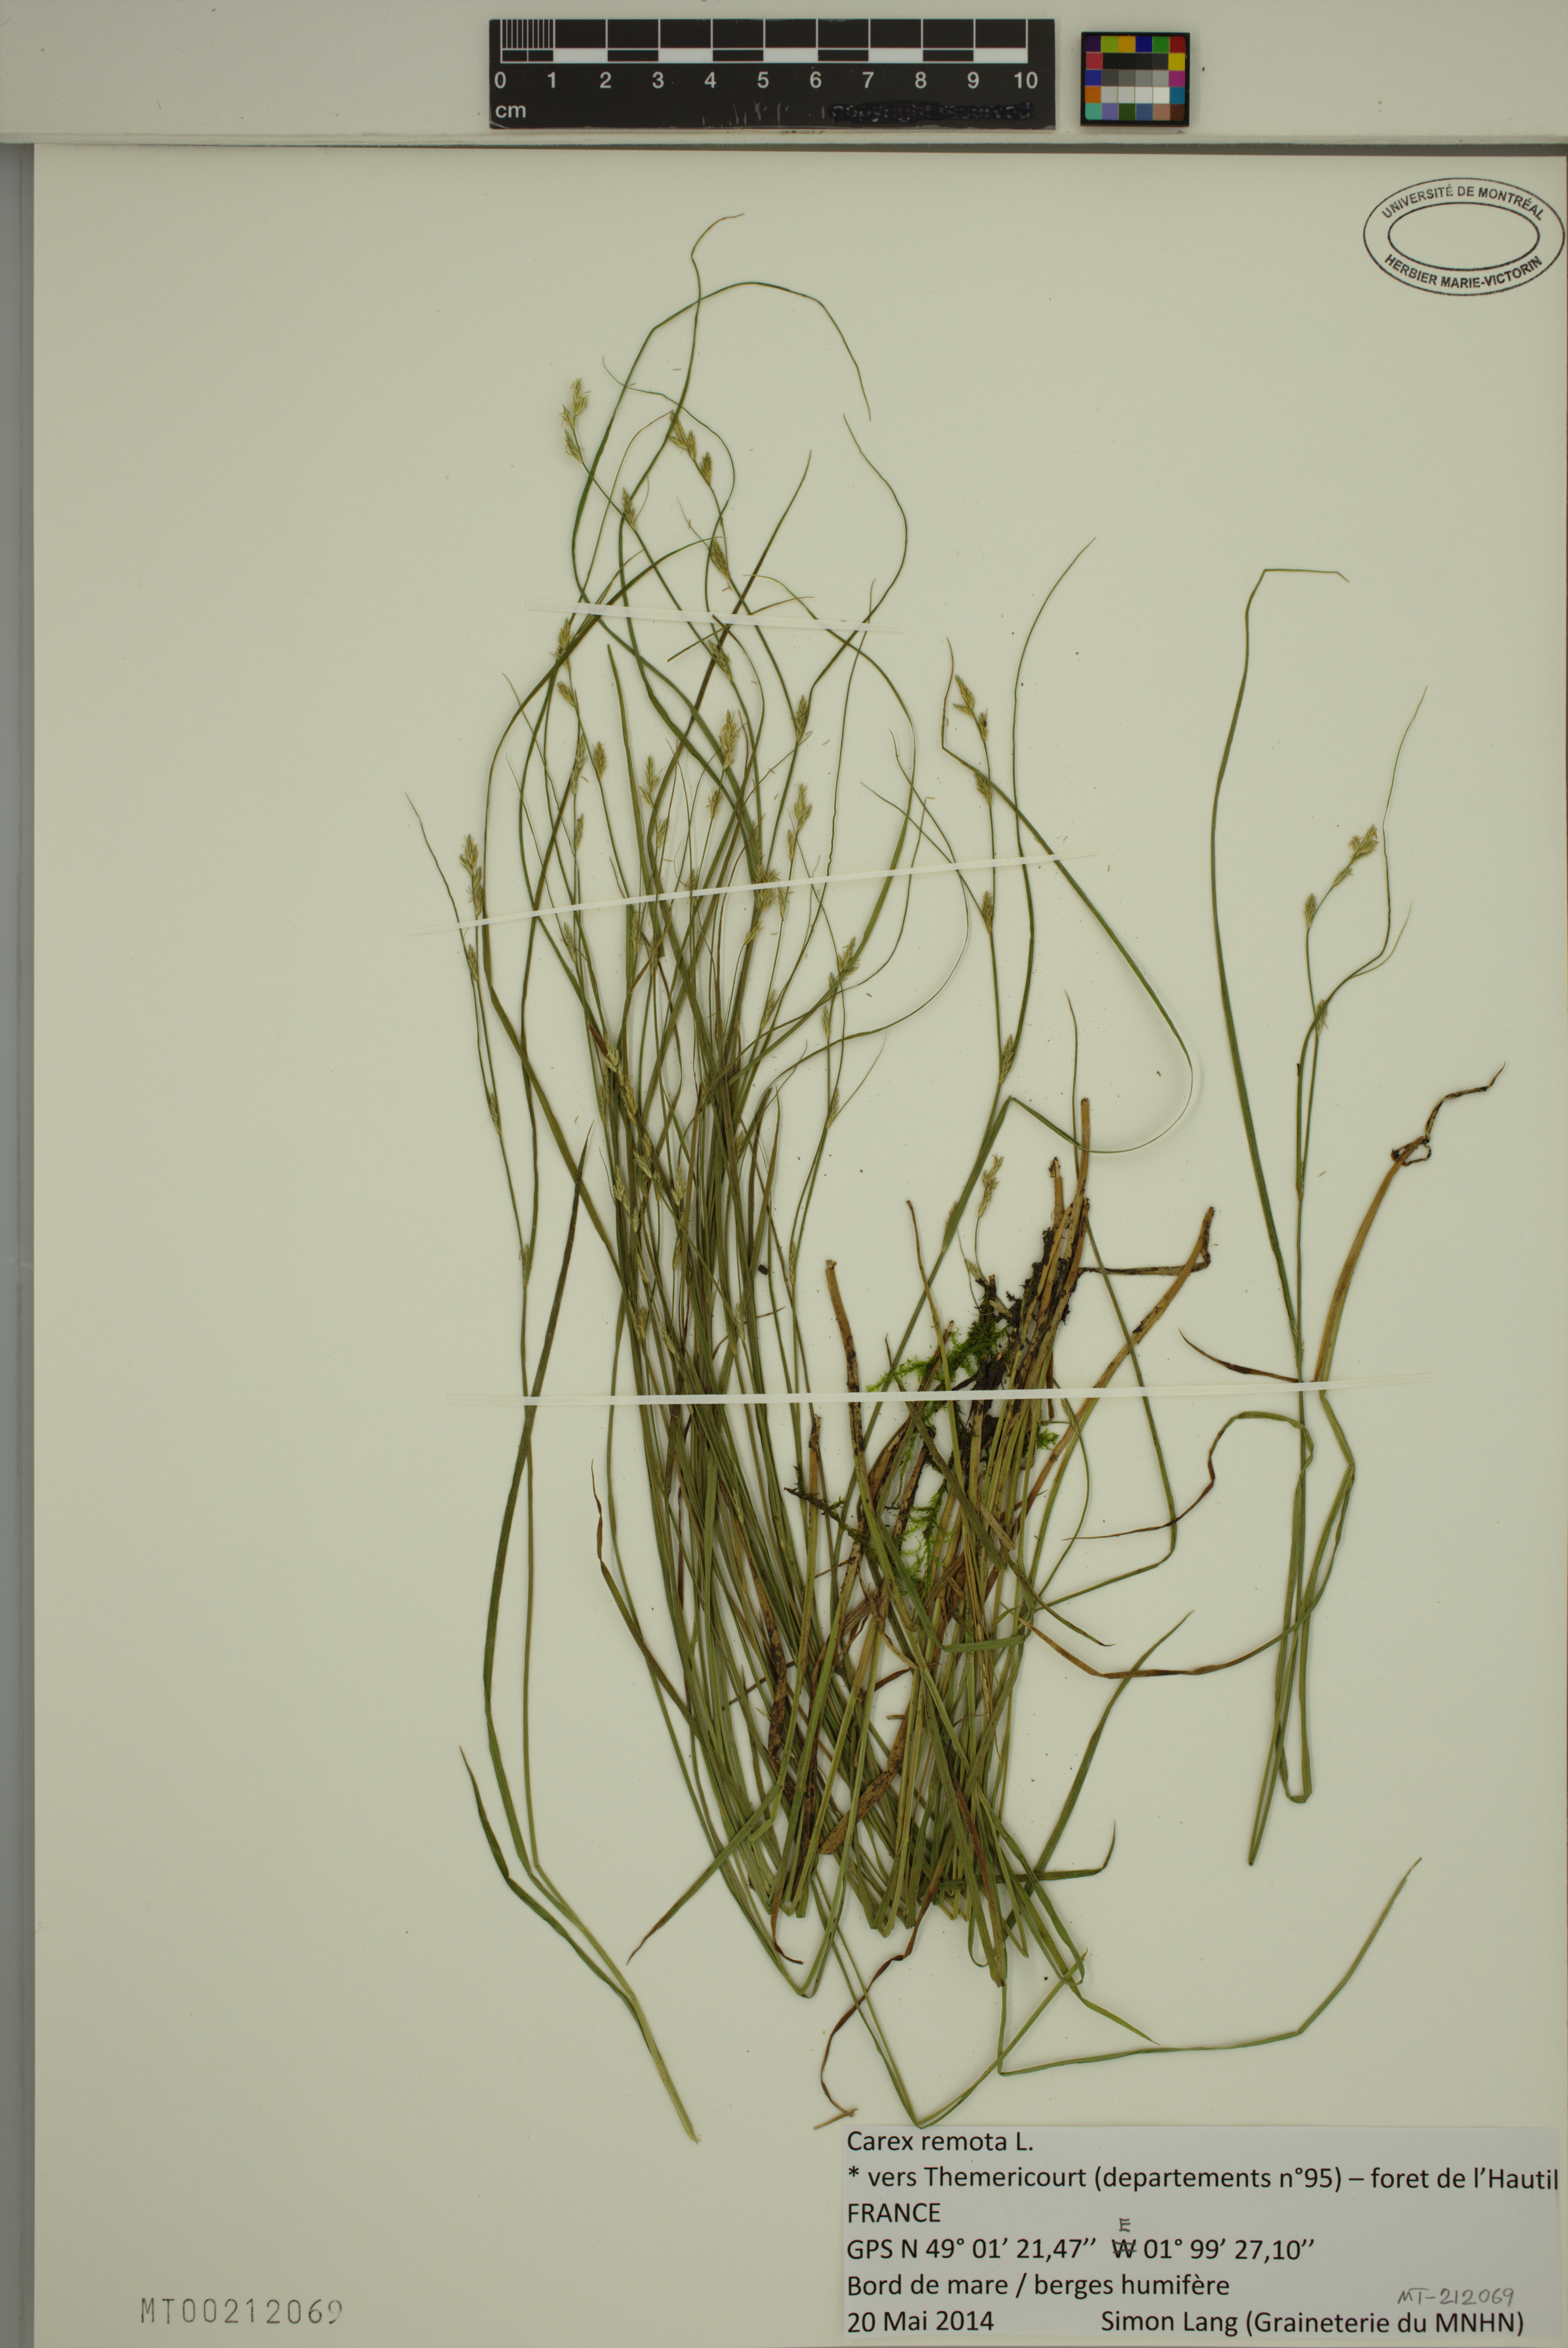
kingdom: Plantae
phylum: Tracheophyta
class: Liliopsida
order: Poales
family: Cyperaceae
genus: Carex
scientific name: Carex remota
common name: Remote sedge
